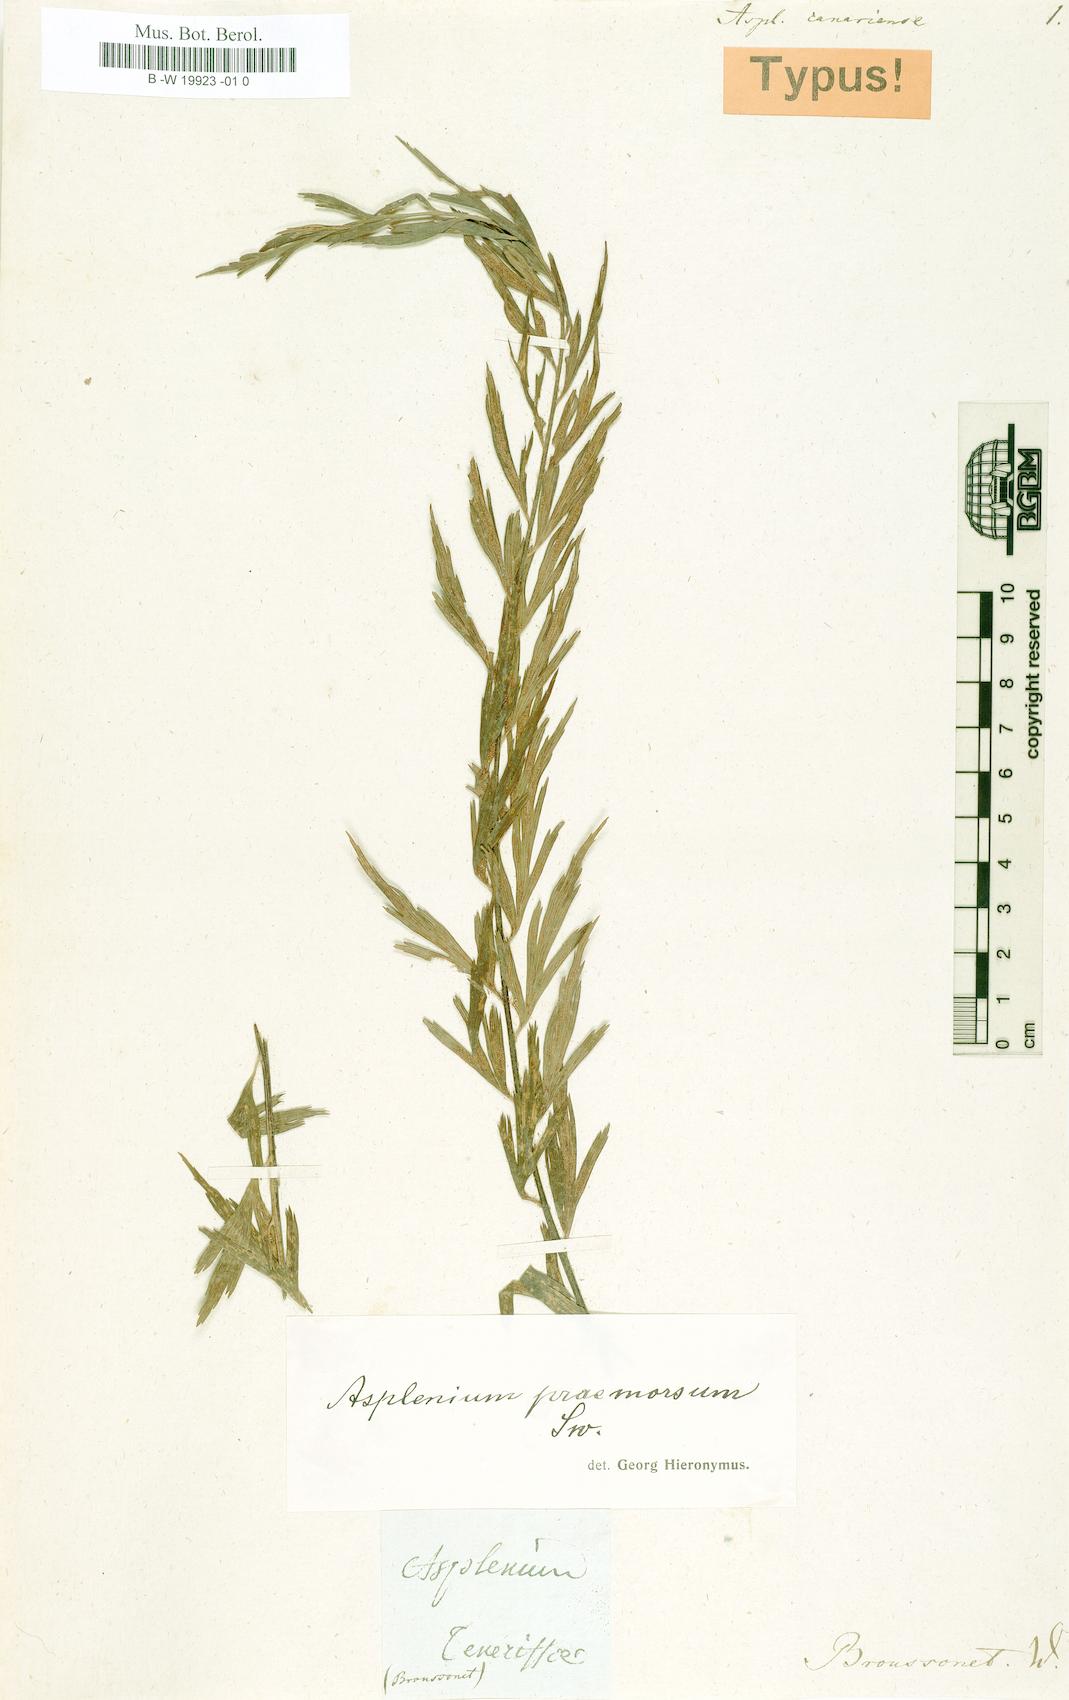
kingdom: Plantae
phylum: Tracheophyta
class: Polypodiopsida
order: Polypodiales
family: Aspleniaceae
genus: Asplenium
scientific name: Asplenium canariense
